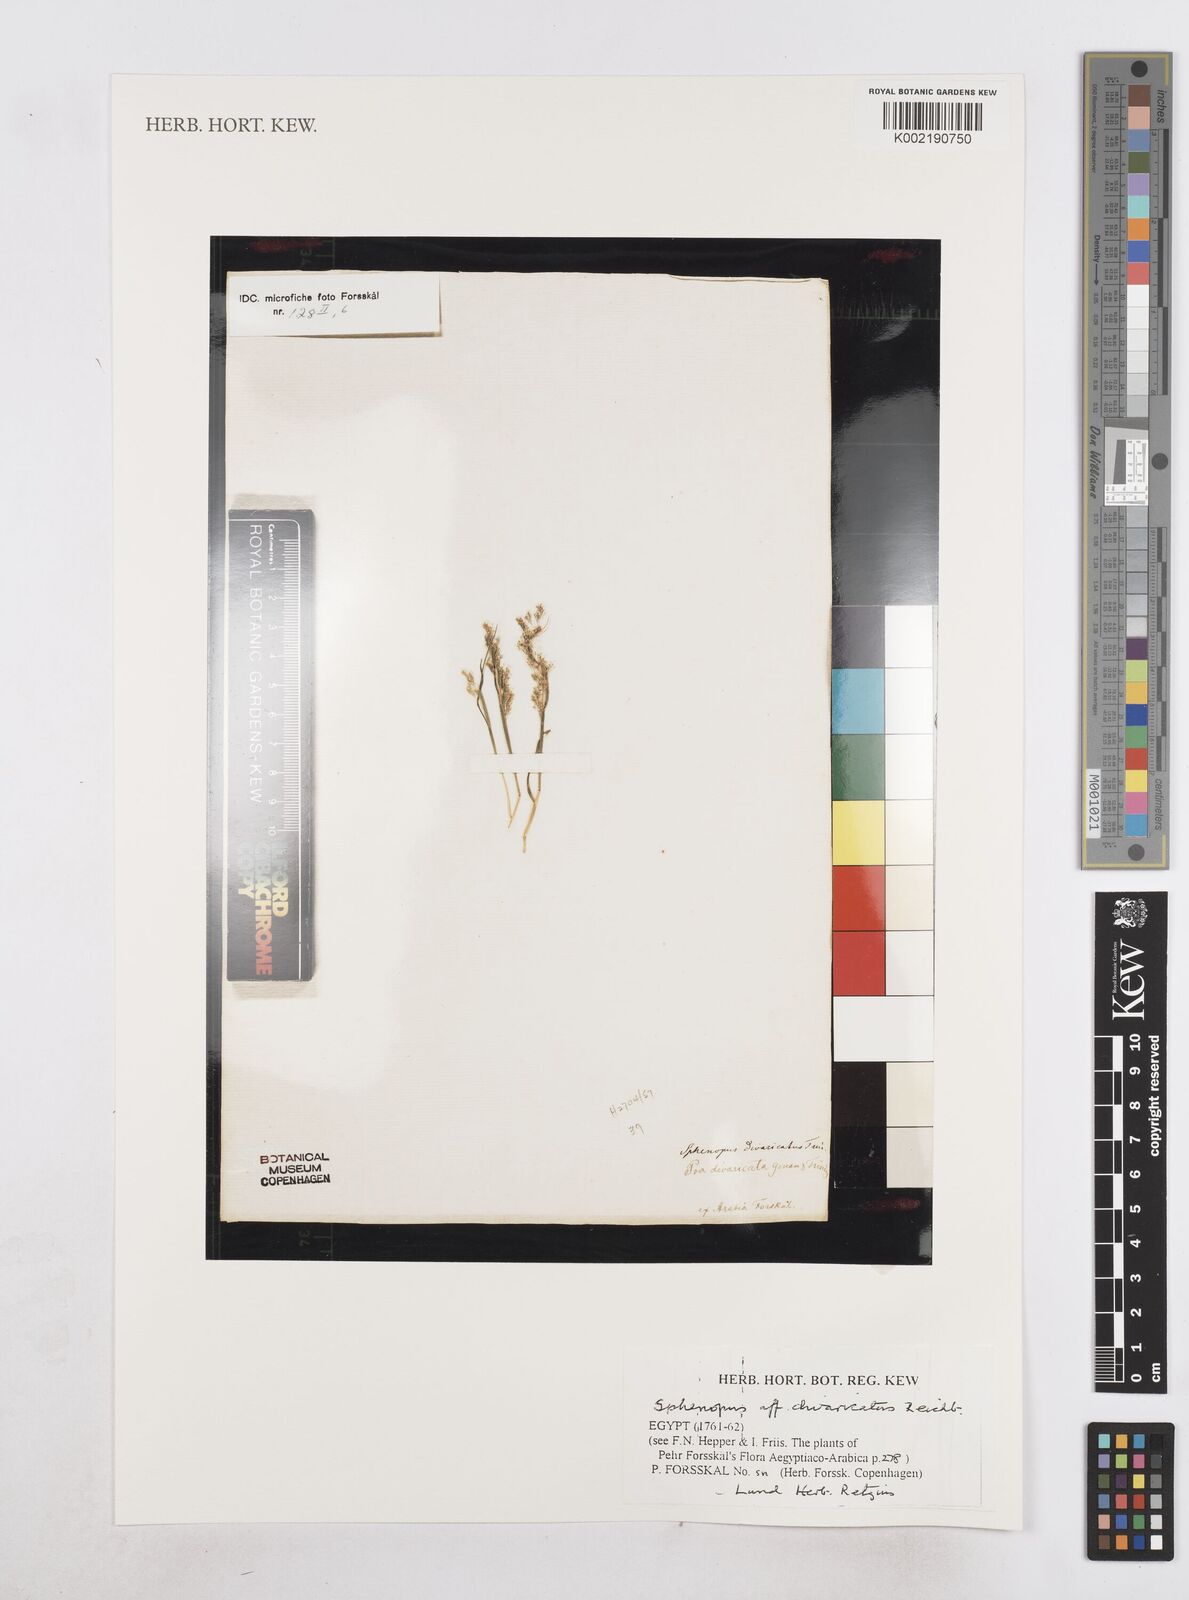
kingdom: Plantae
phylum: Tracheophyta
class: Liliopsida
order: Poales
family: Poaceae
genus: Sphenopus
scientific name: Sphenopus divaricatus
